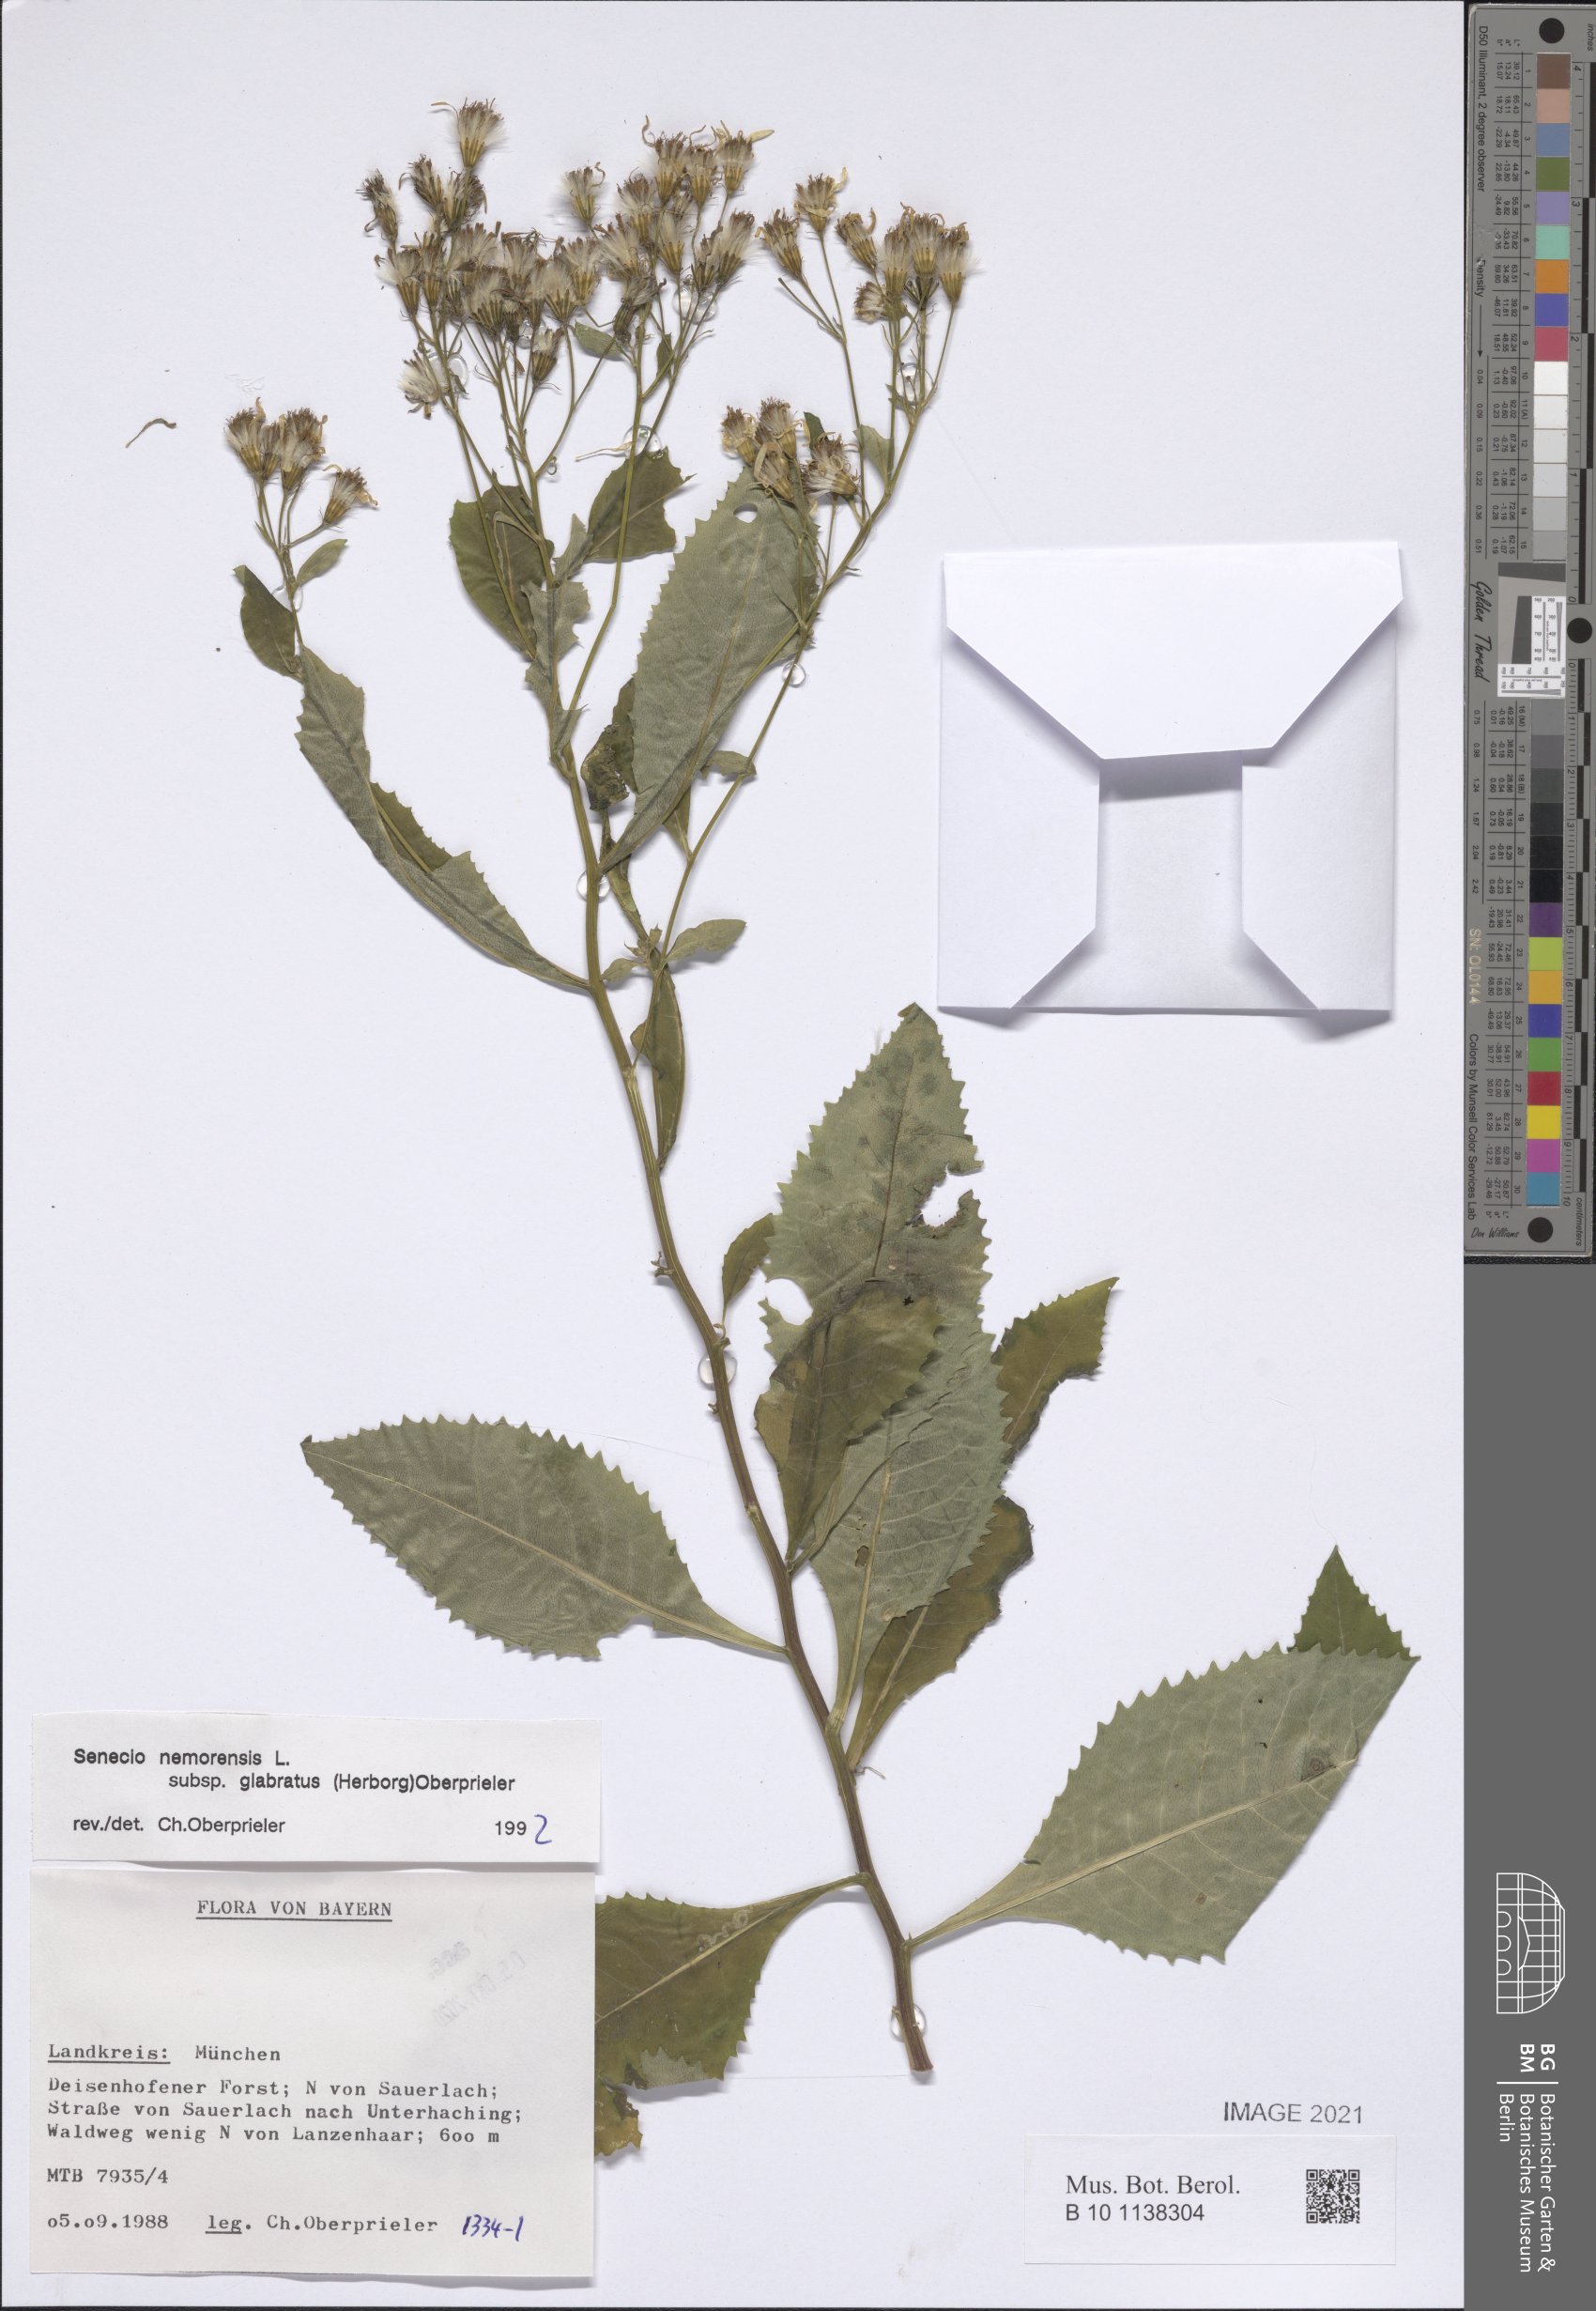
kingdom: Plantae
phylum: Tracheophyta
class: Magnoliopsida
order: Asterales
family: Asteraceae
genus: Senecio
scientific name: Senecio germanicus
